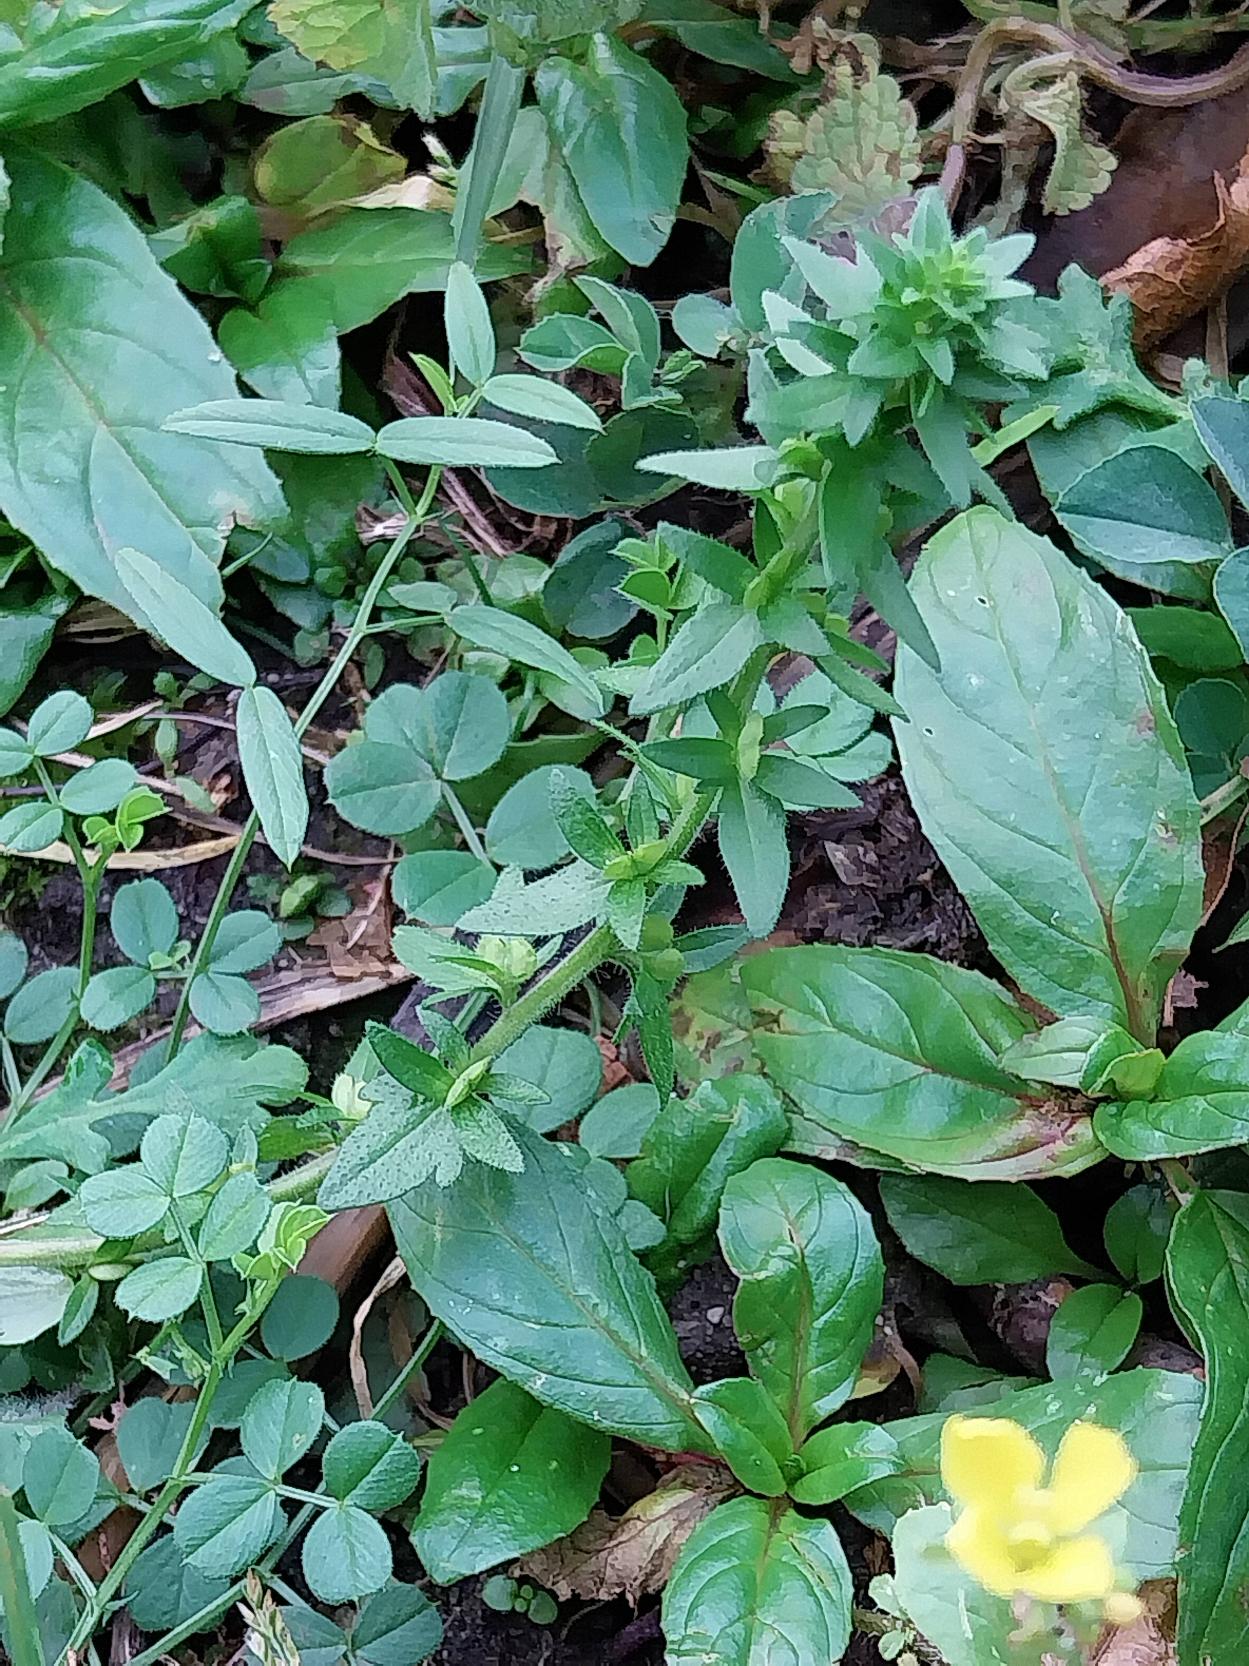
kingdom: Plantae
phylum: Tracheophyta
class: Magnoliopsida
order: Lamiales
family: Plantaginaceae
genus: Veronica
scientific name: Veronica arvensis
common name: Mark-ærenpris
